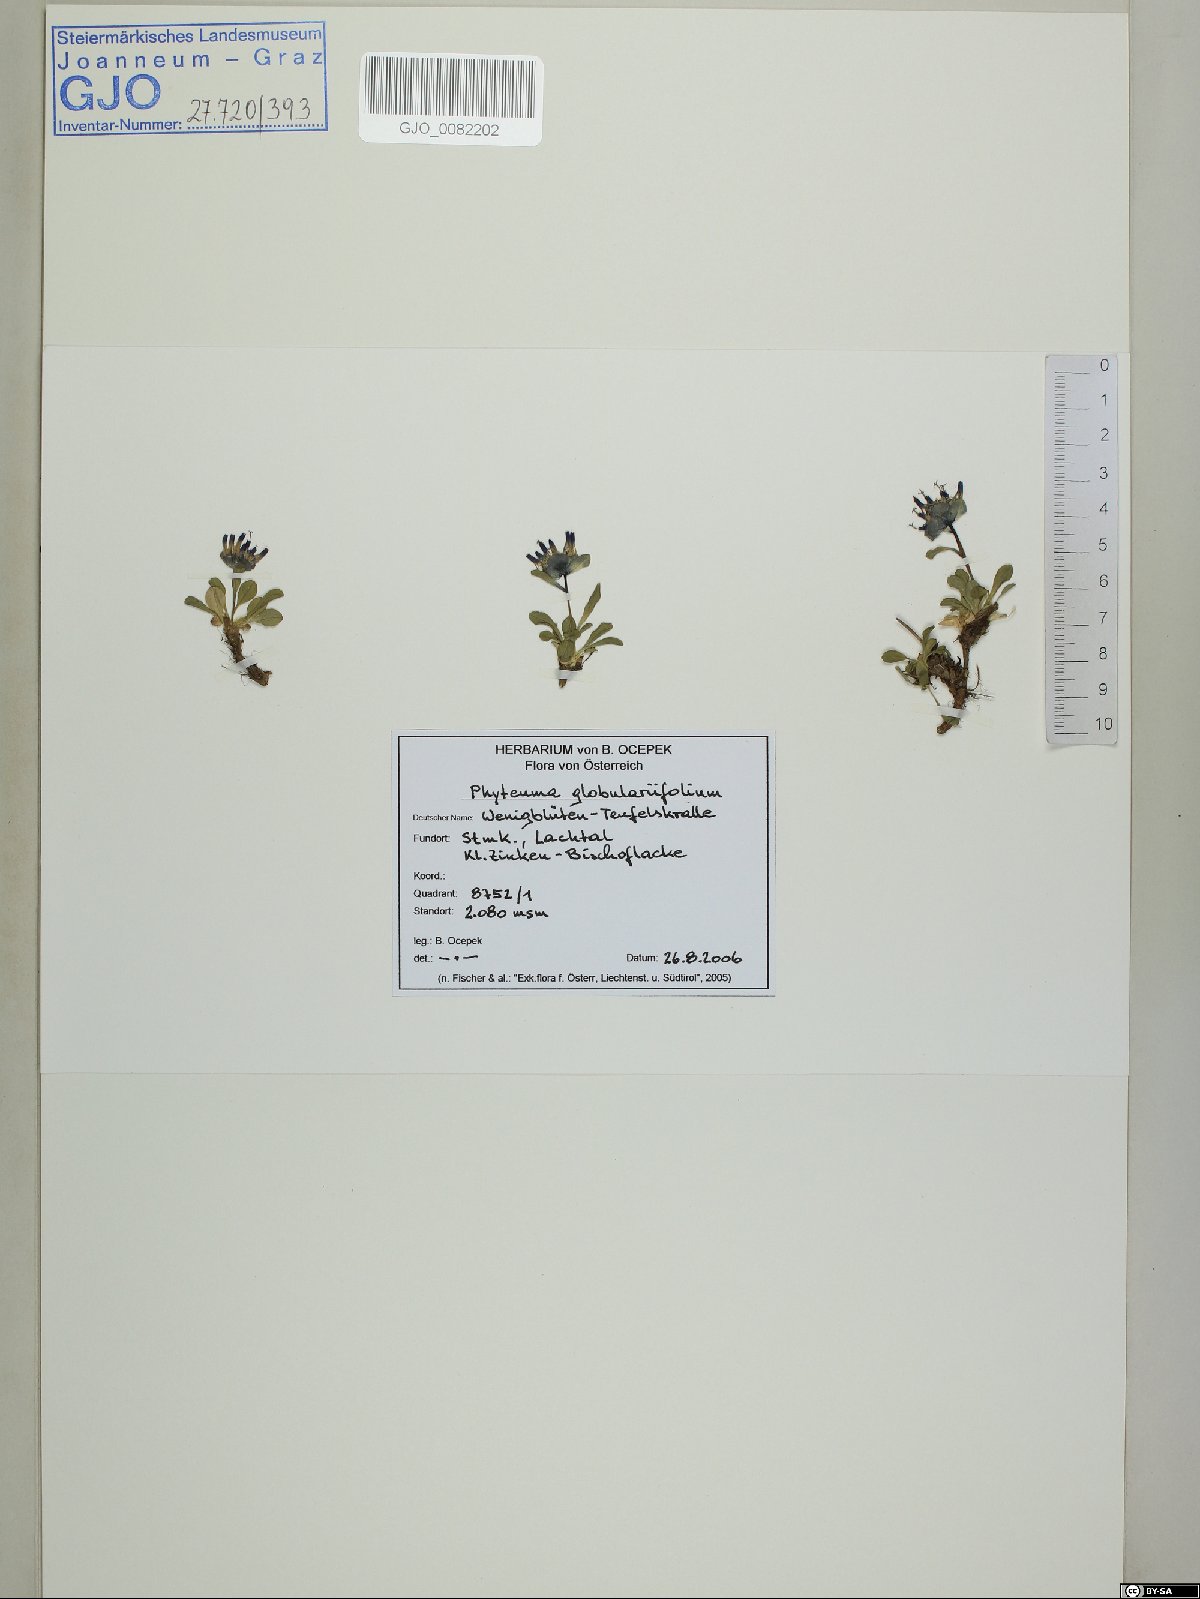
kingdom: Plantae
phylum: Tracheophyta
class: Magnoliopsida
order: Asterales
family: Campanulaceae
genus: Phyteuma
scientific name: Phyteuma globulariifolium
